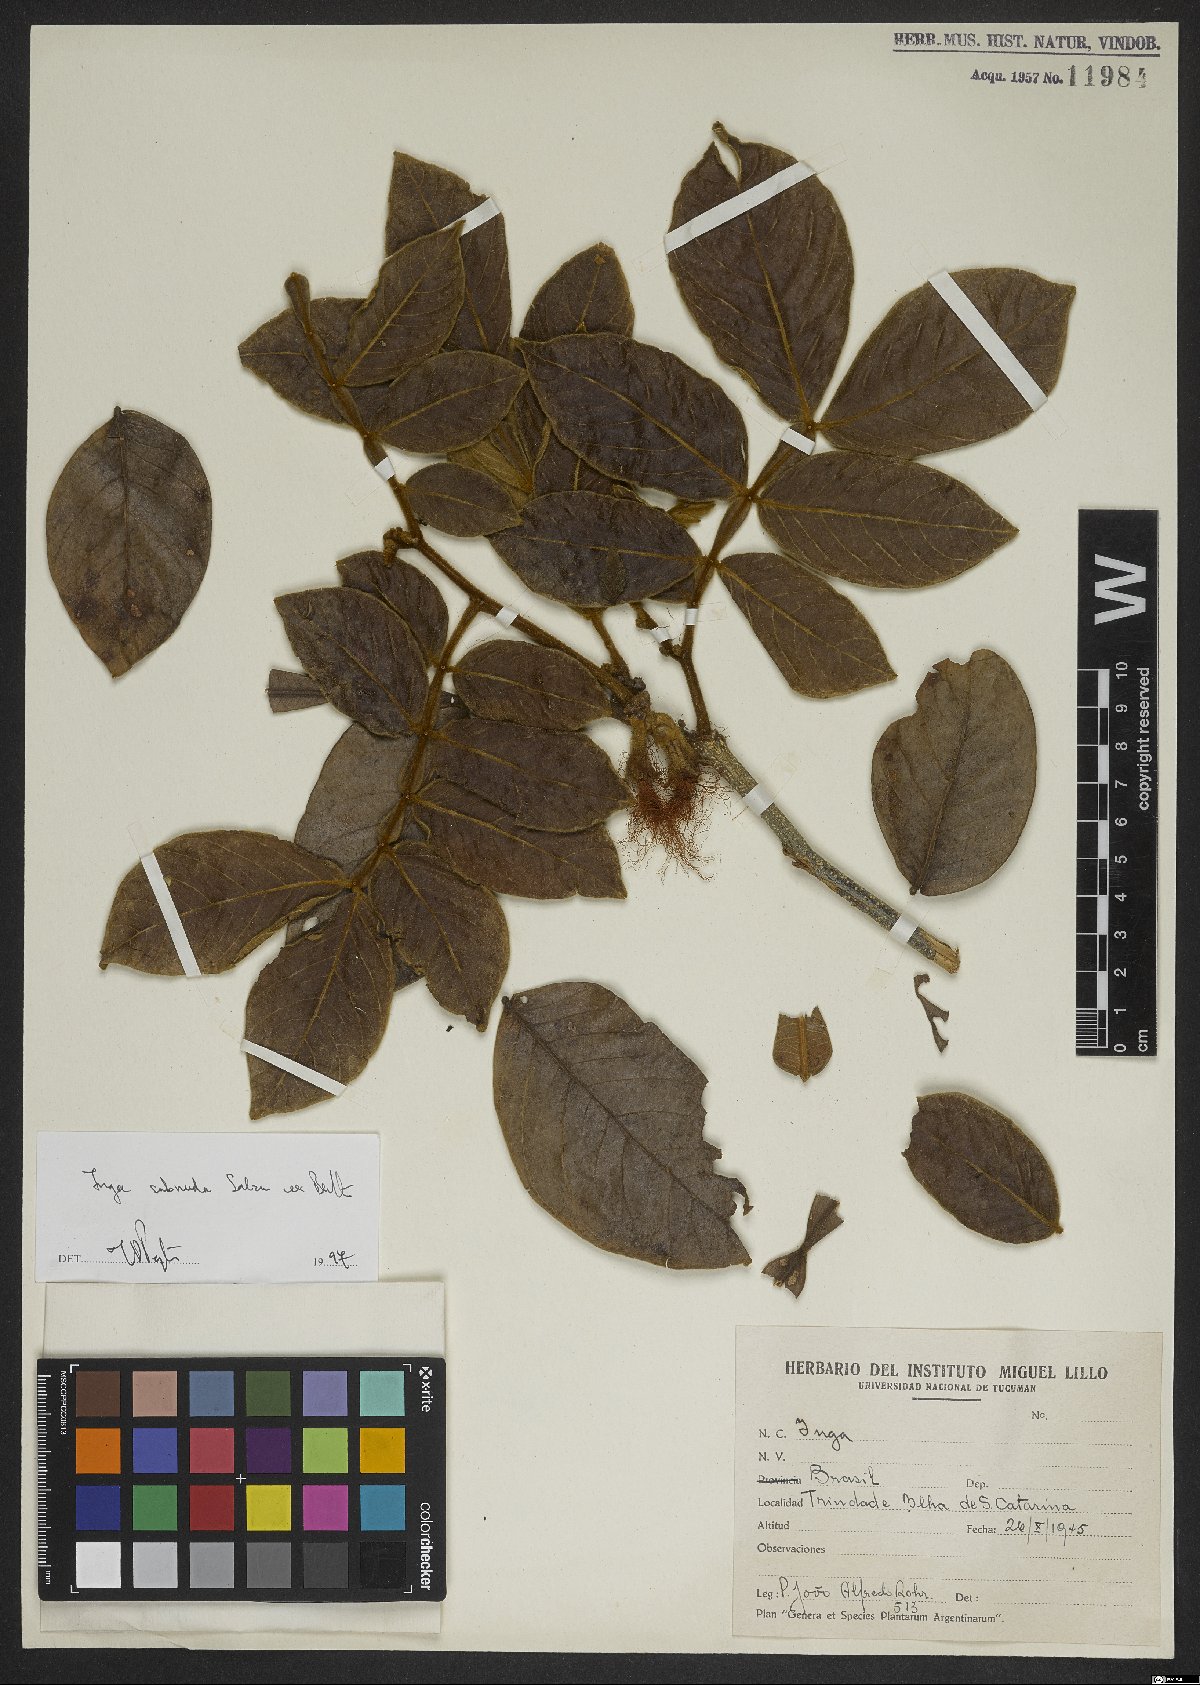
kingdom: Plantae
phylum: Tracheophyta
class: Magnoliopsida
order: Fabales
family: Fabaceae
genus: Inga
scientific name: Inga subnuda
